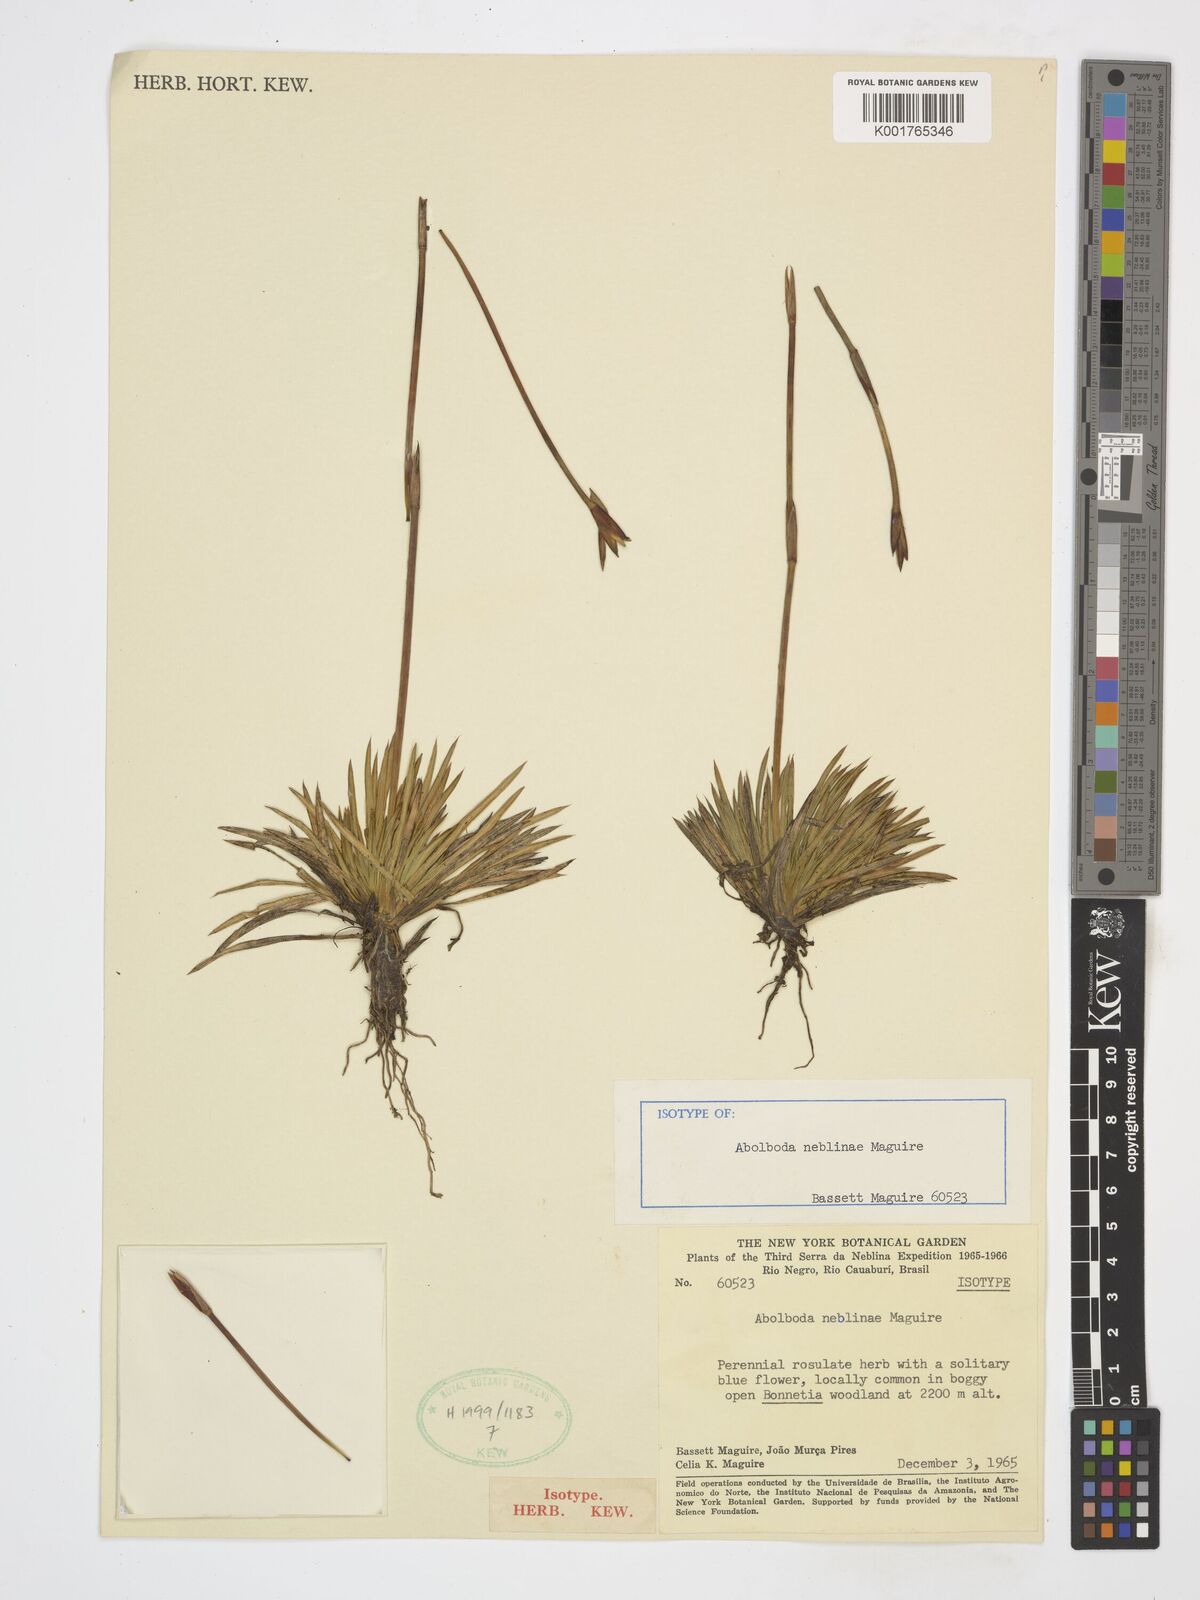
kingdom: Plantae
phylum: Tracheophyta
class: Liliopsida
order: Poales
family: Xyridaceae
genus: Abolboda
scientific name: Abolboda neblinae
